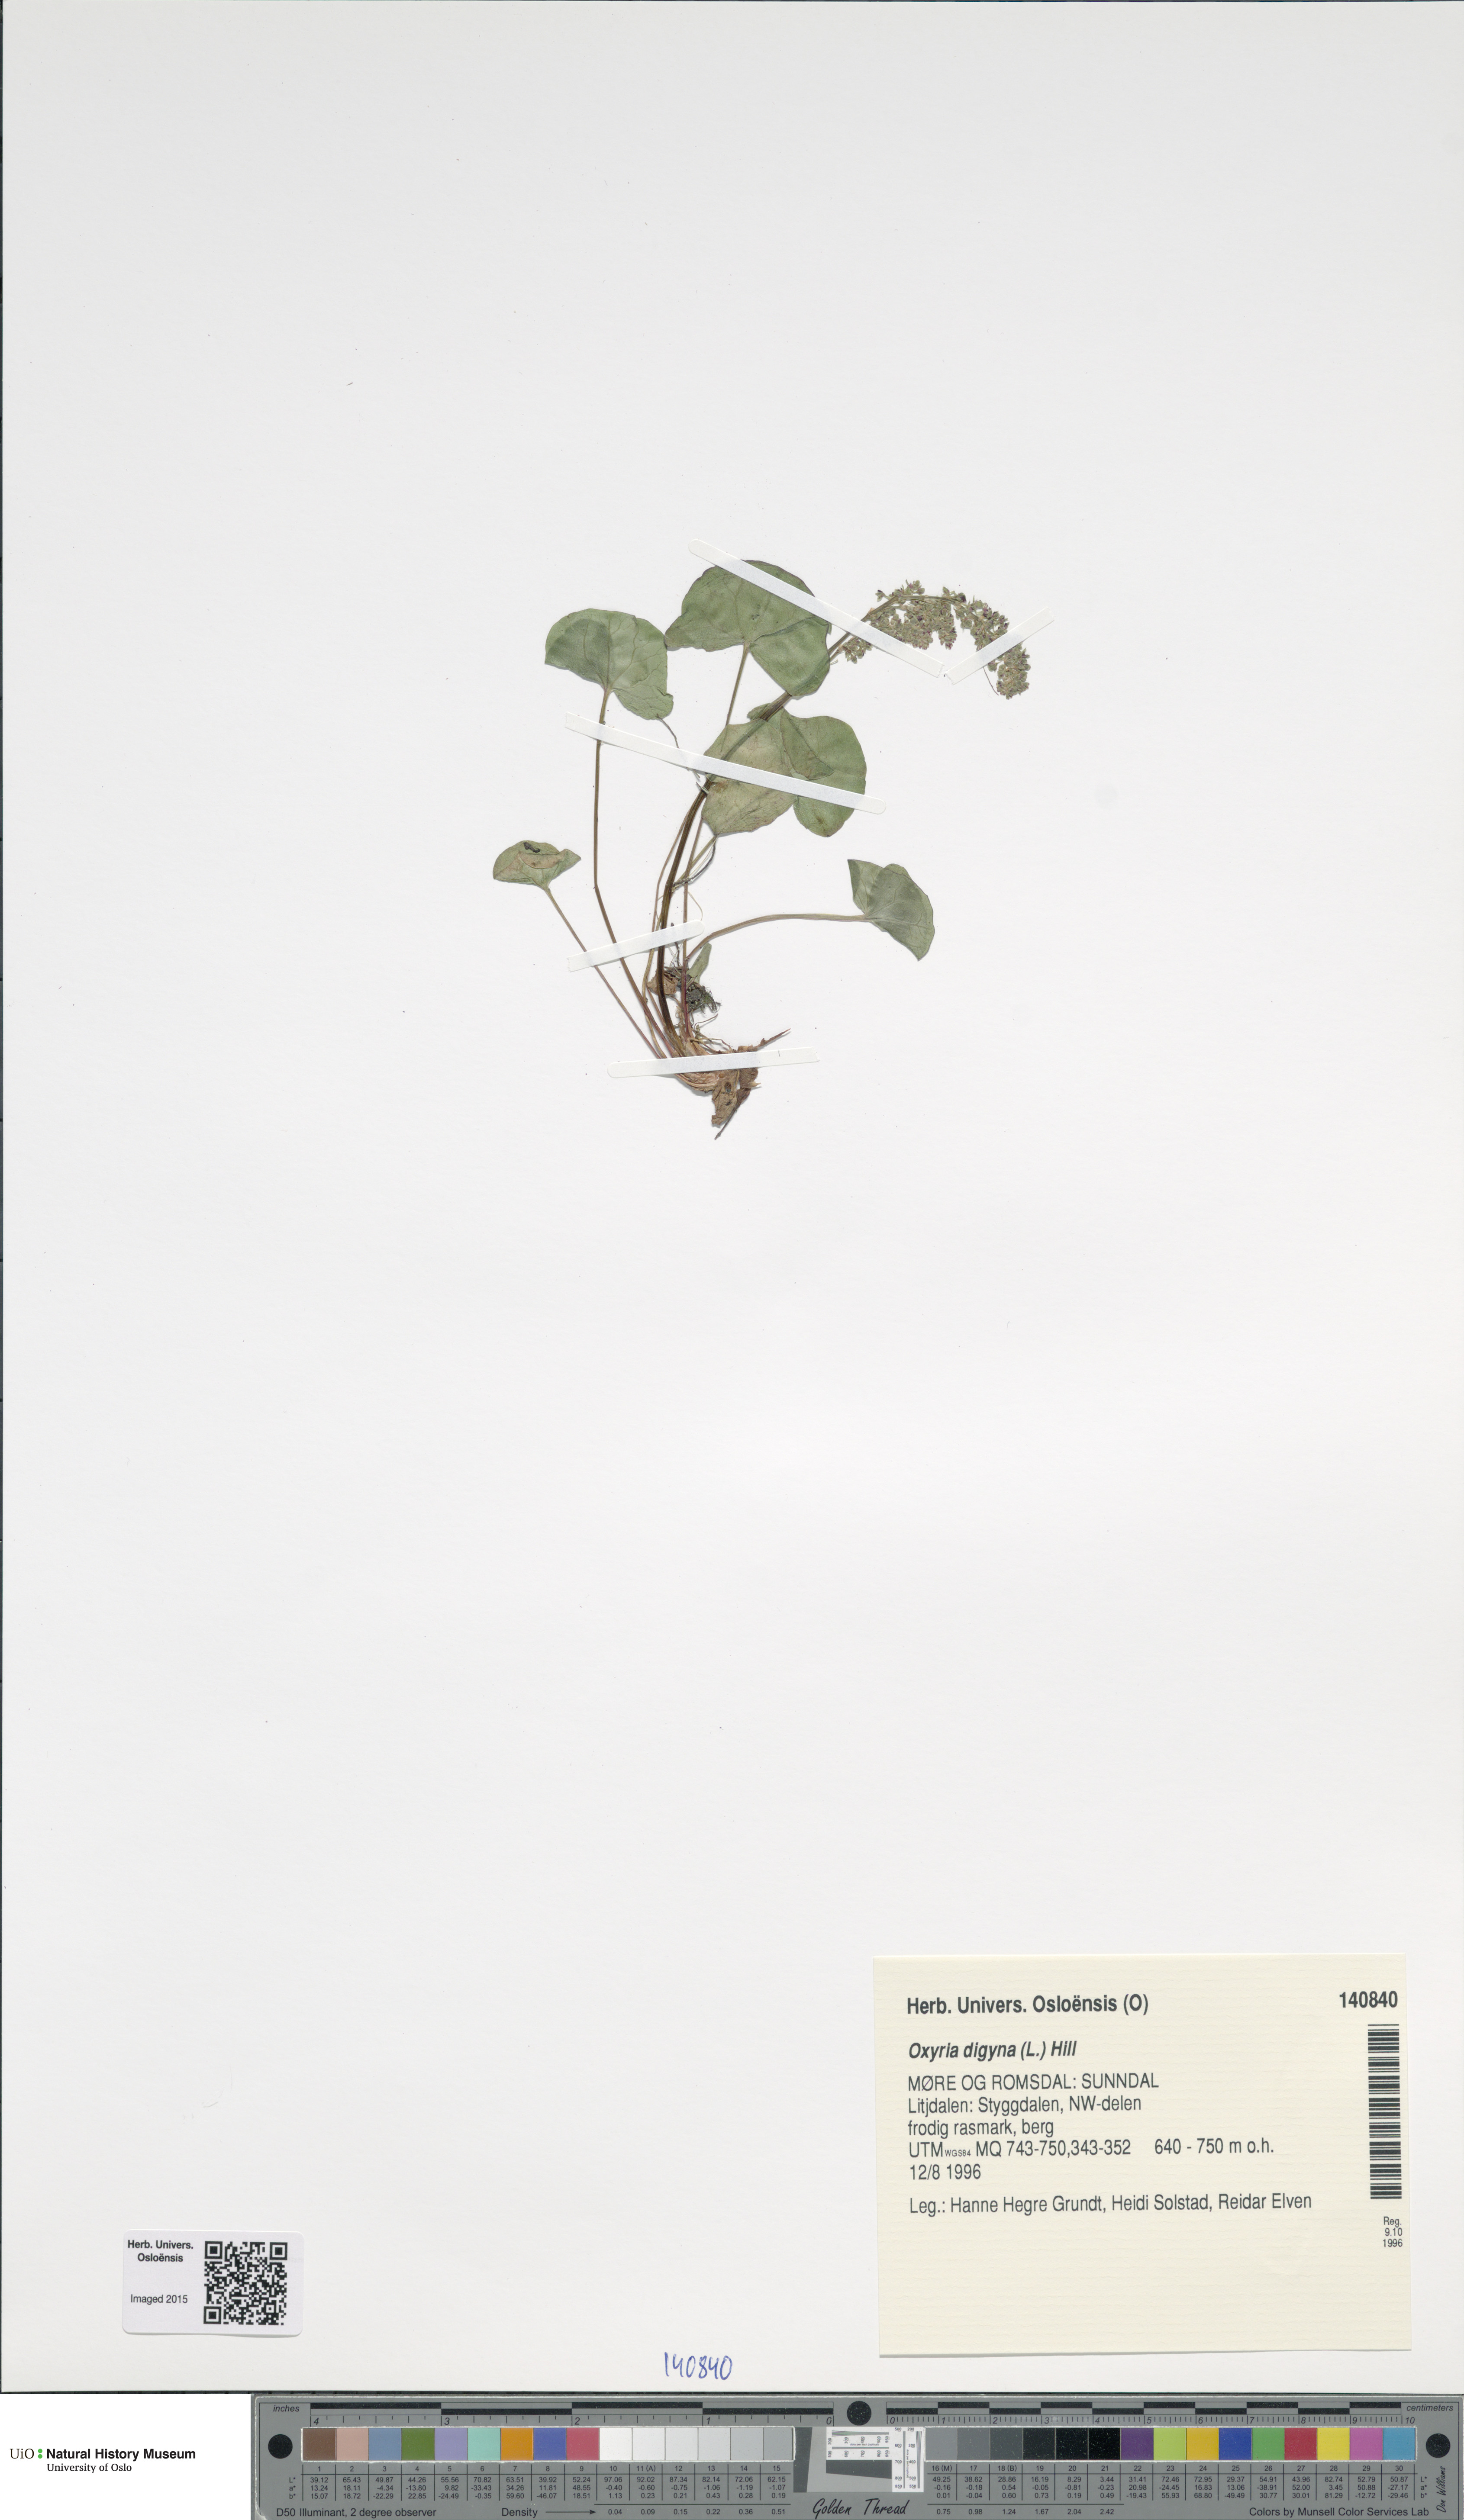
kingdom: Plantae
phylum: Tracheophyta
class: Magnoliopsida
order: Caryophyllales
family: Polygonaceae
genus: Oxyria
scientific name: Oxyria digyna
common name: Alpine mountain-sorrel
